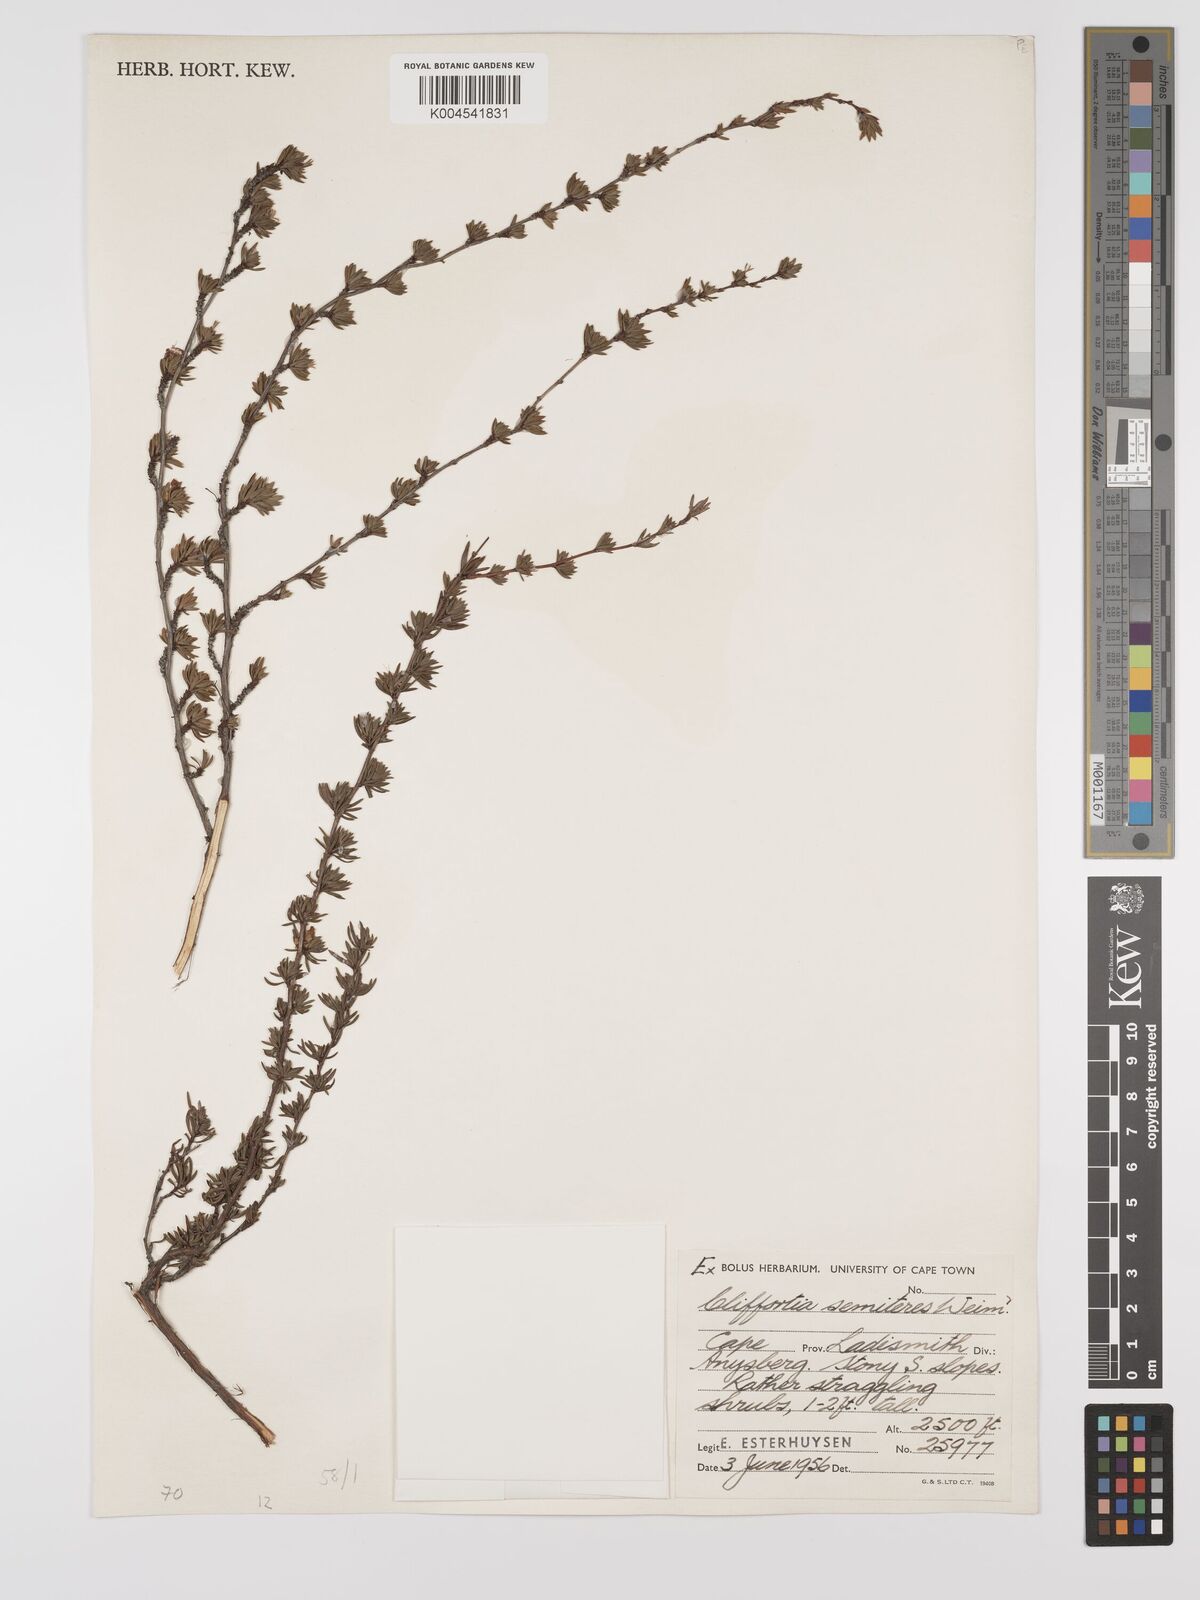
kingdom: Plantae
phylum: Tracheophyta
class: Magnoliopsida
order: Rosales
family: Rosaceae
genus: Cliffortia
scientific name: Cliffortia semiteres
